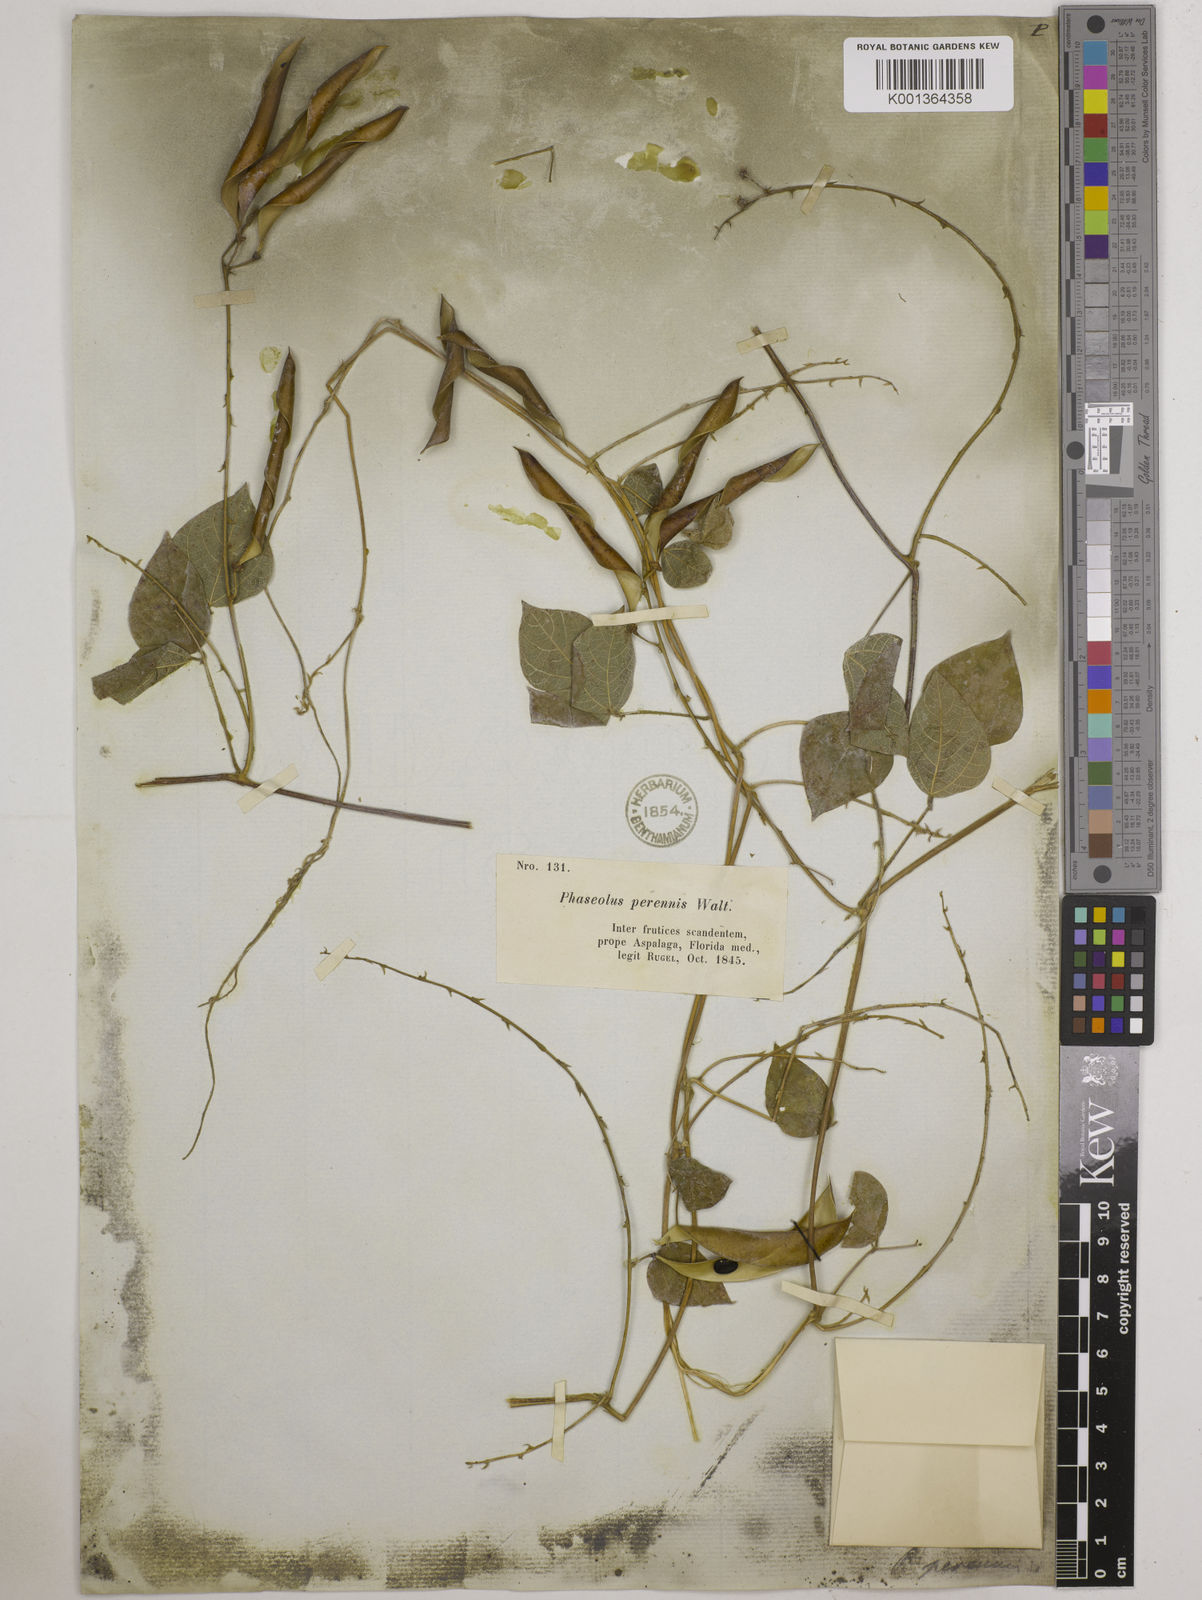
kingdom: Plantae
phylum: Tracheophyta
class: Magnoliopsida
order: Fabales
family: Fabaceae
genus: Phaseolus
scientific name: Phaseolus
